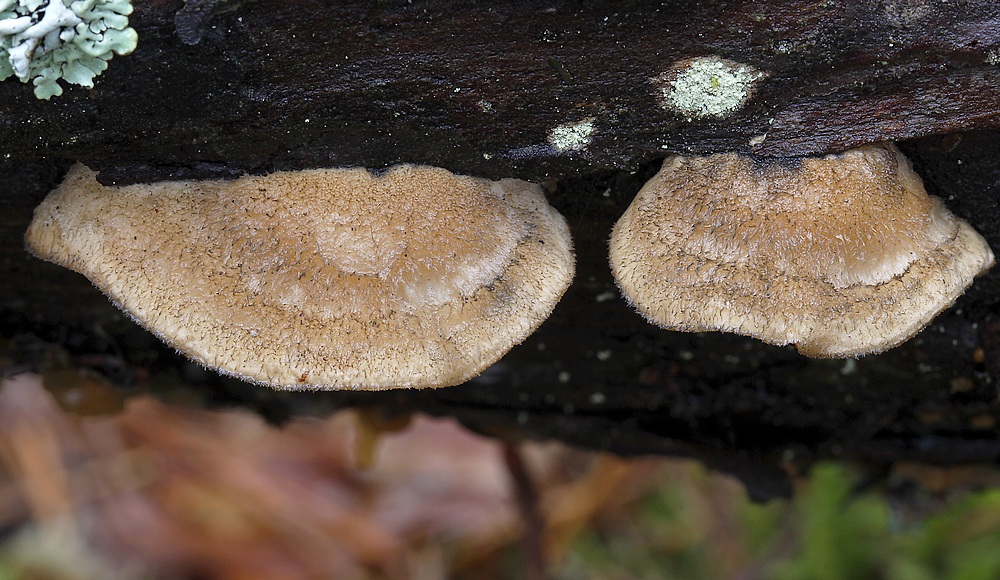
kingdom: Fungi
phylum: Basidiomycota
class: Agaricomycetes
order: Polyporales
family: Polyporaceae
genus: Cyanosporus
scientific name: Cyanosporus caesius
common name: blålig kødporesvamp
